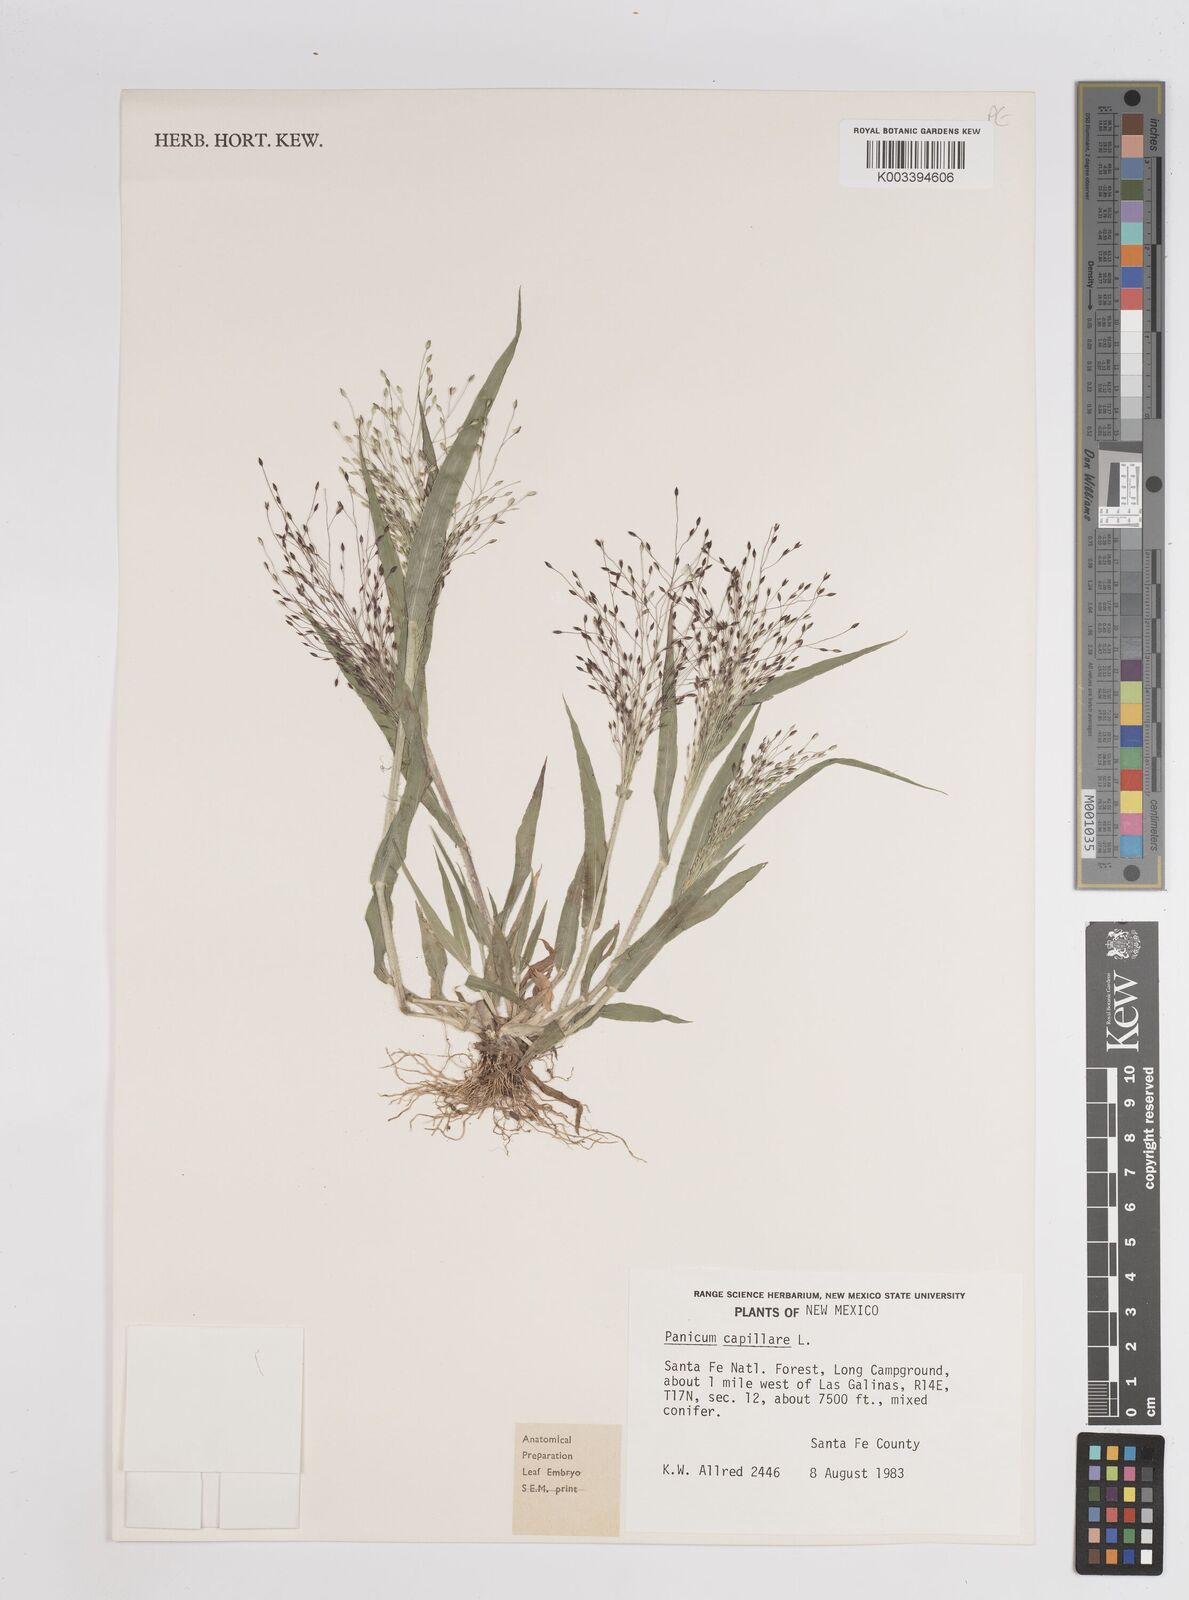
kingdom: Plantae
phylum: Tracheophyta
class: Liliopsida
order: Poales
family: Poaceae
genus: Panicum
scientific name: Panicum capillare
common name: Witch-grass
